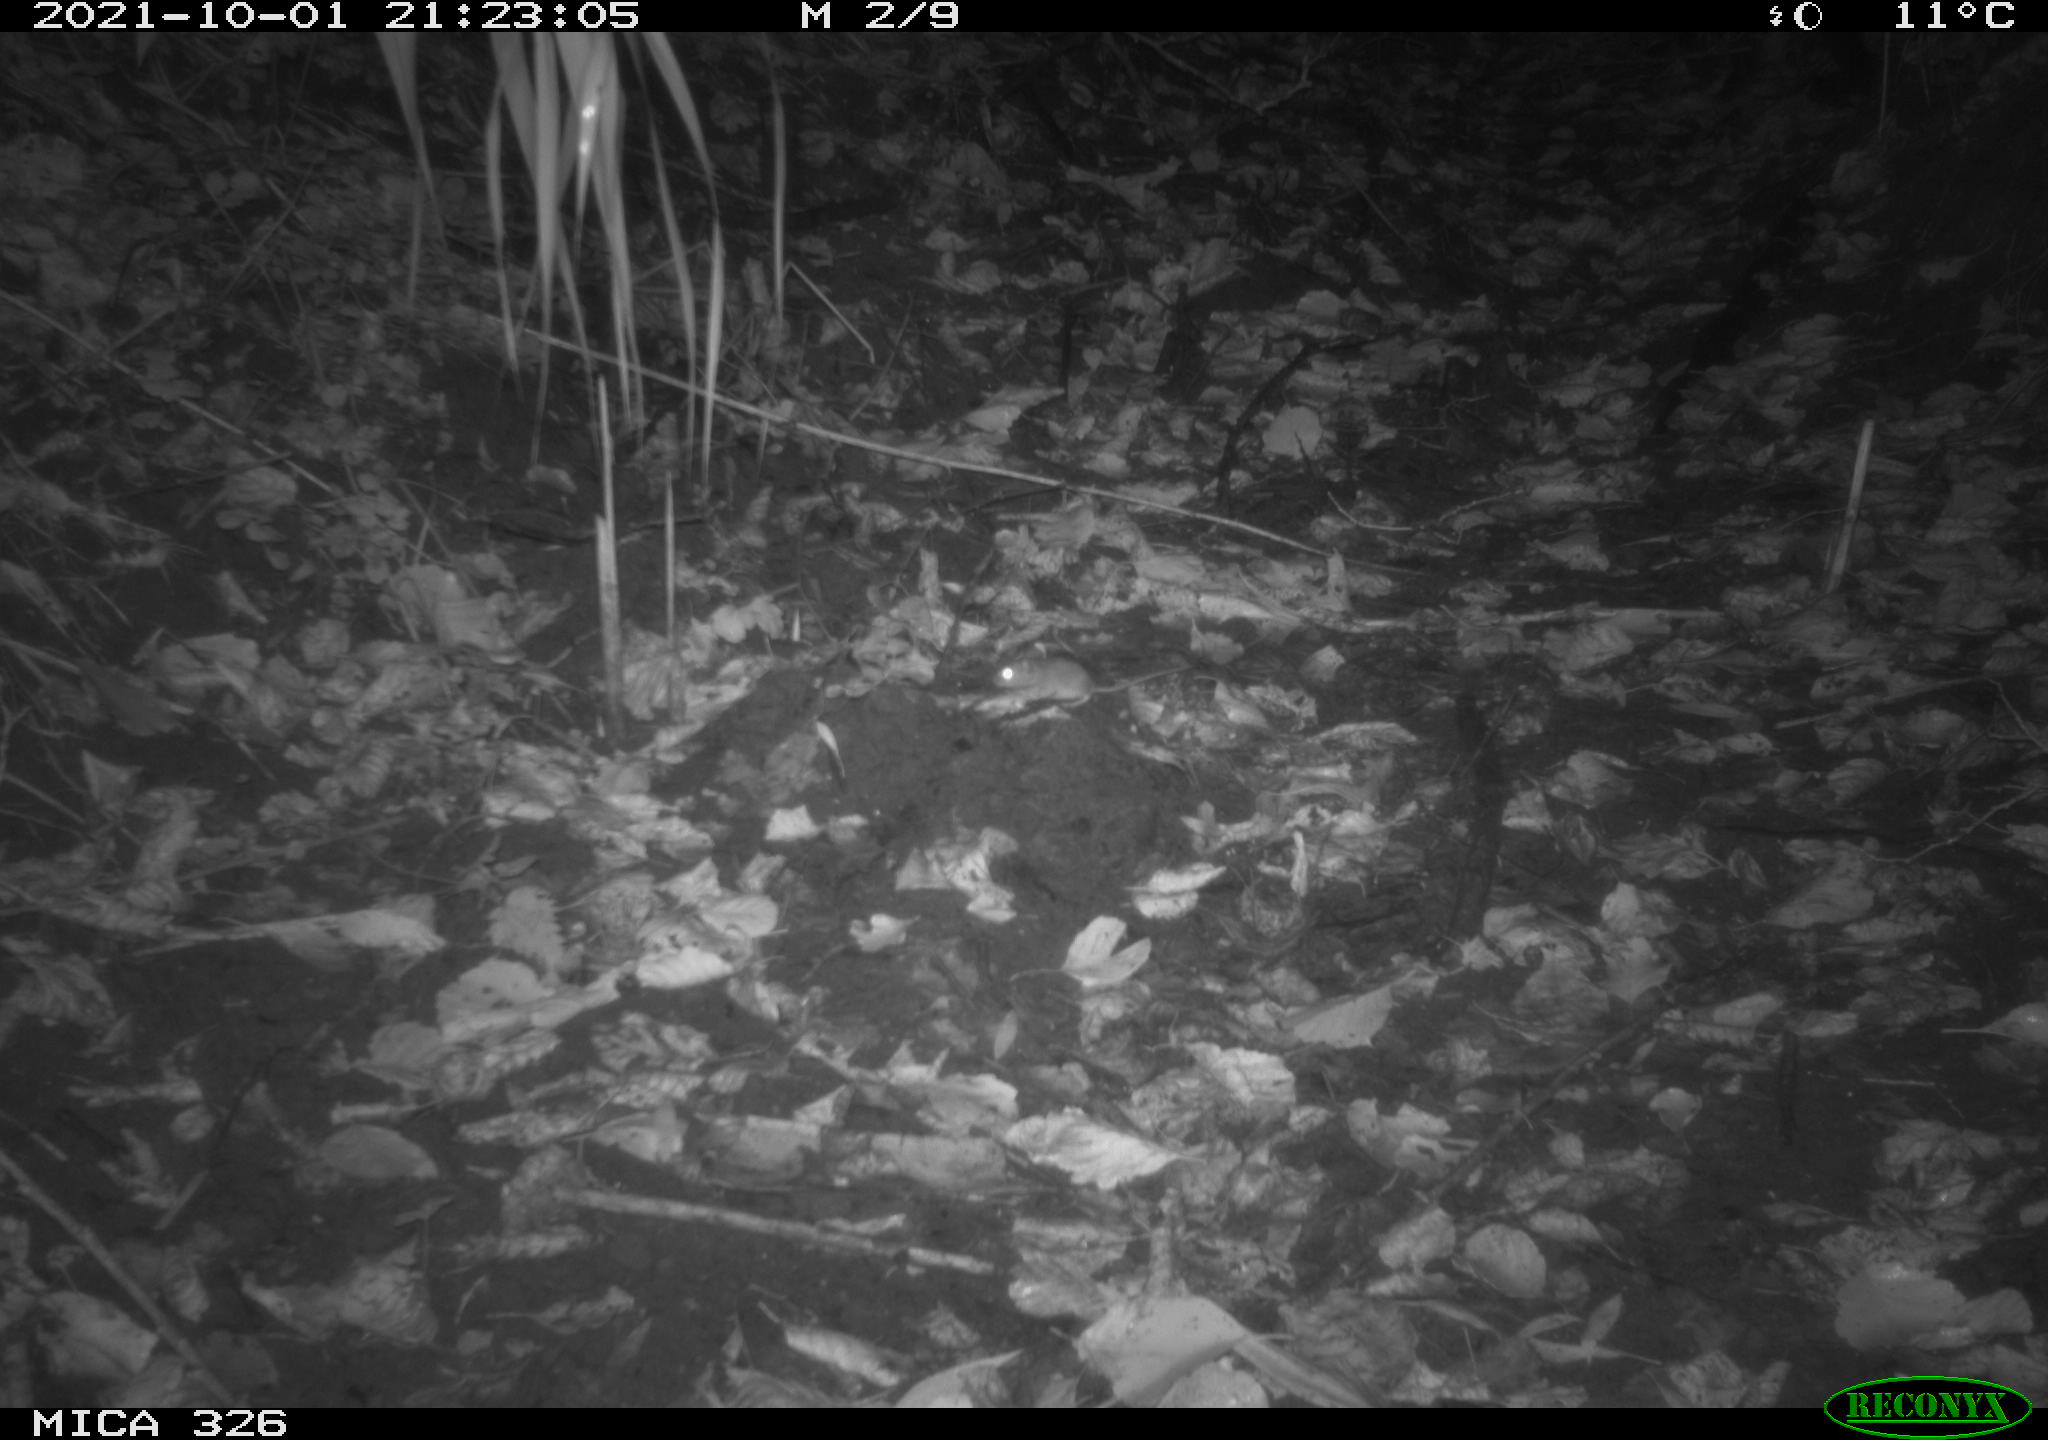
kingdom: Animalia
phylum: Chordata
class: Mammalia
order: Rodentia
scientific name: Rodentia
